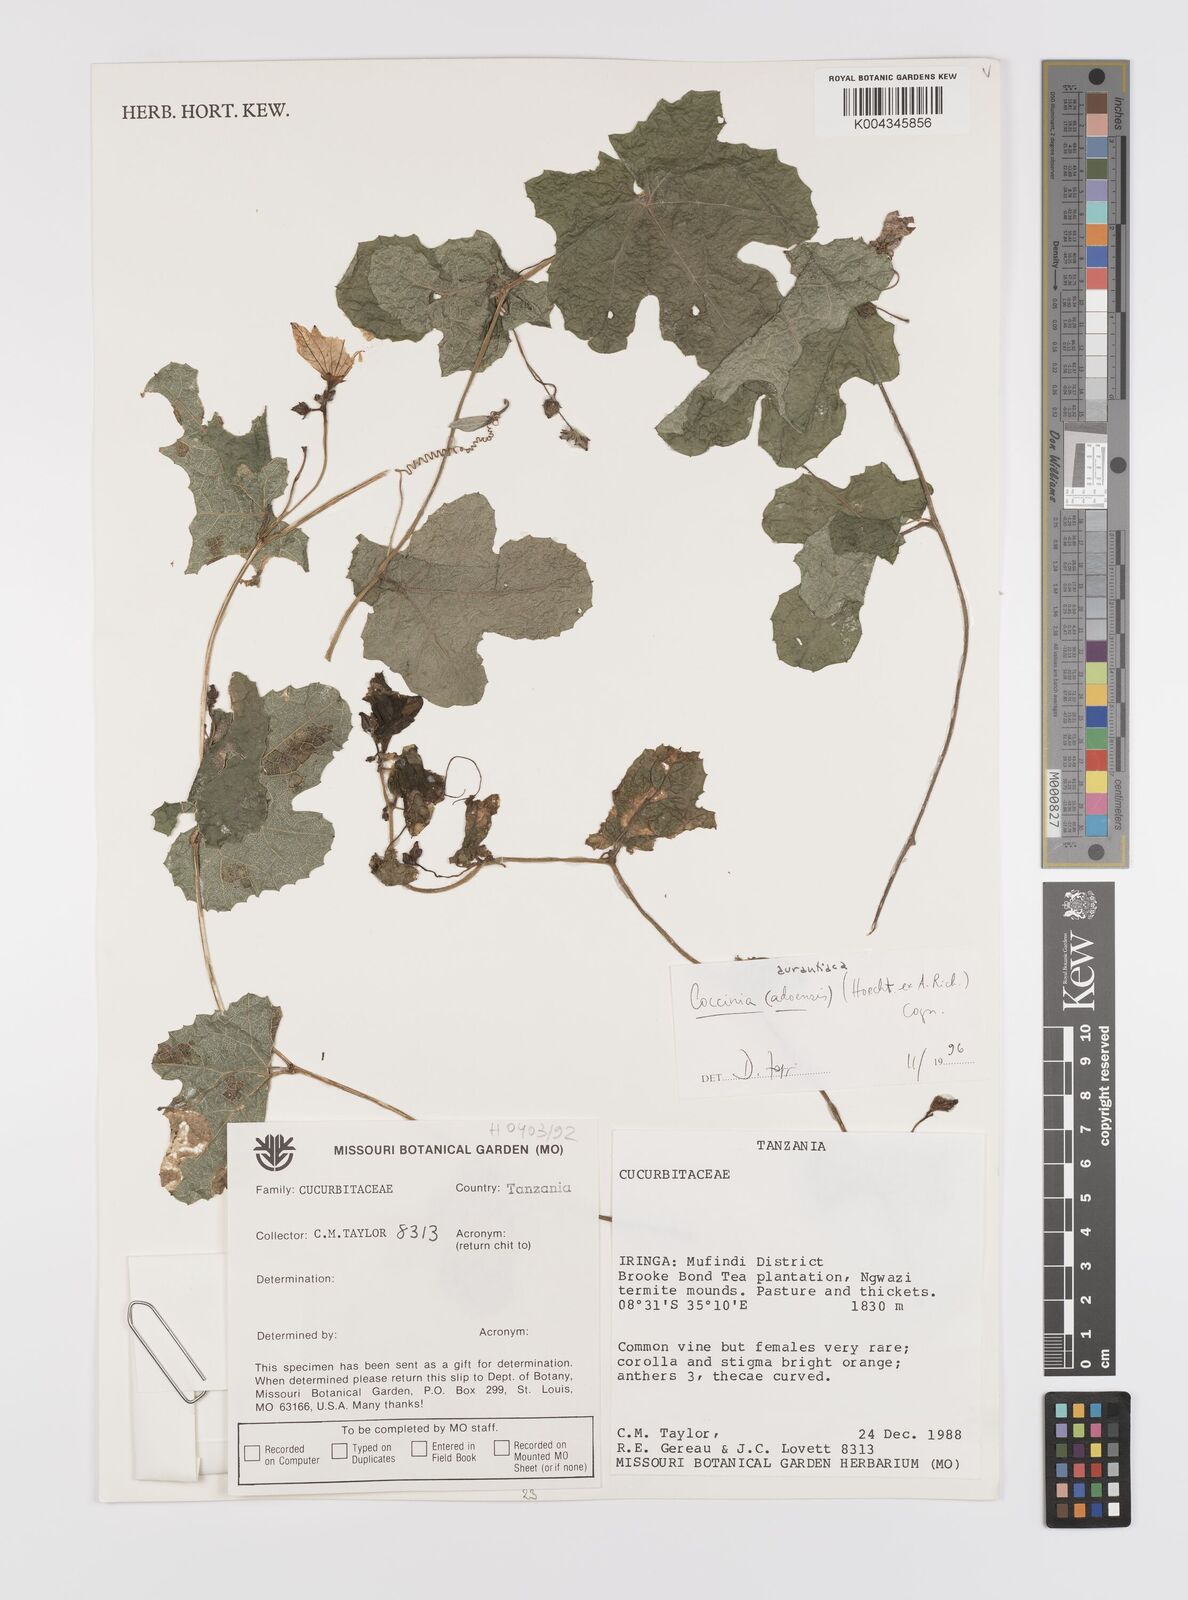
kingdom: Plantae
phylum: Tracheophyta
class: Magnoliopsida
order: Cucurbitales
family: Cucurbitaceae
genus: Coccinia
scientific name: Coccinia adoensis
